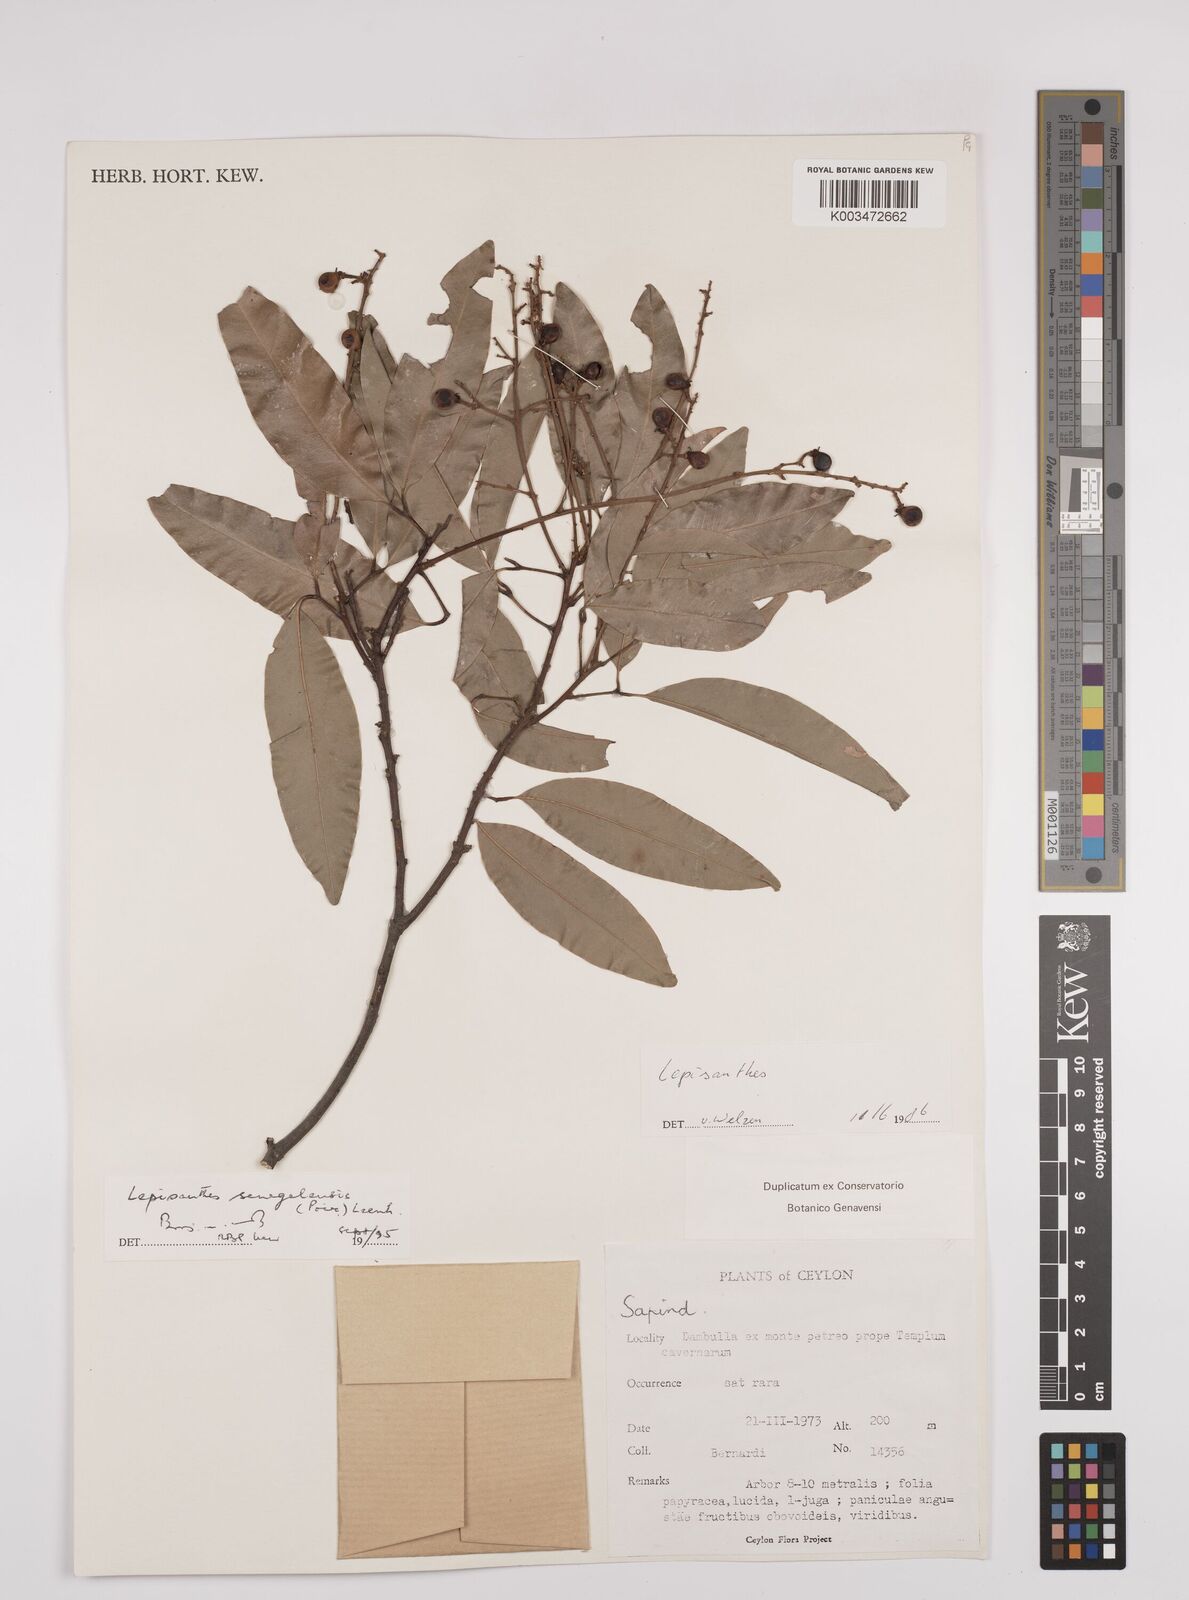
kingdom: Plantae
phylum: Tracheophyta
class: Magnoliopsida
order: Sapindales
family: Sapindaceae
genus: Lepisanthes
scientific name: Lepisanthes senegalensis
